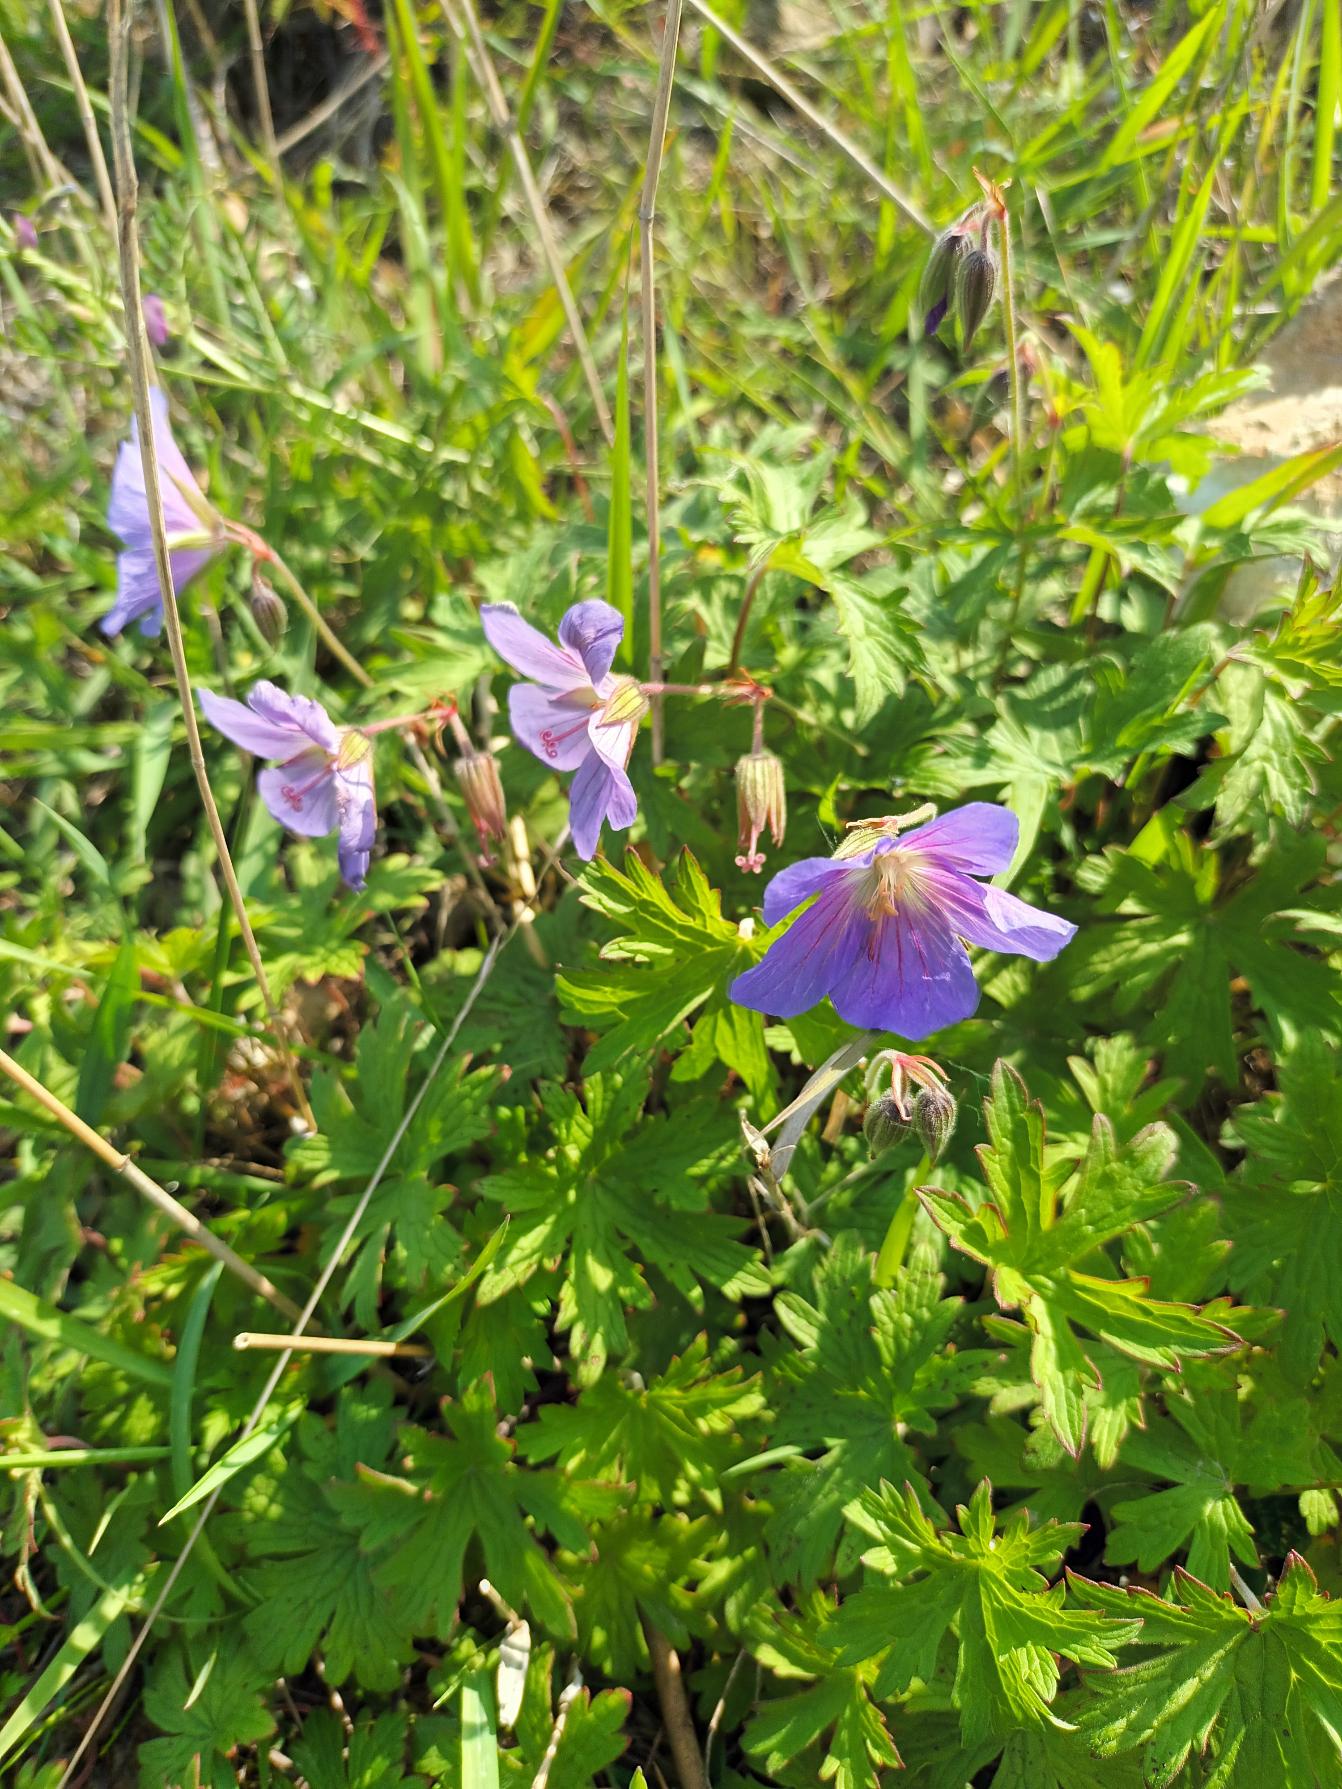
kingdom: Plantae
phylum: Tracheophyta
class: Magnoliopsida
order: Geraniales
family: Geraniaceae
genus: Geranium
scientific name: Geranium pratense
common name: Eng-storkenæb
